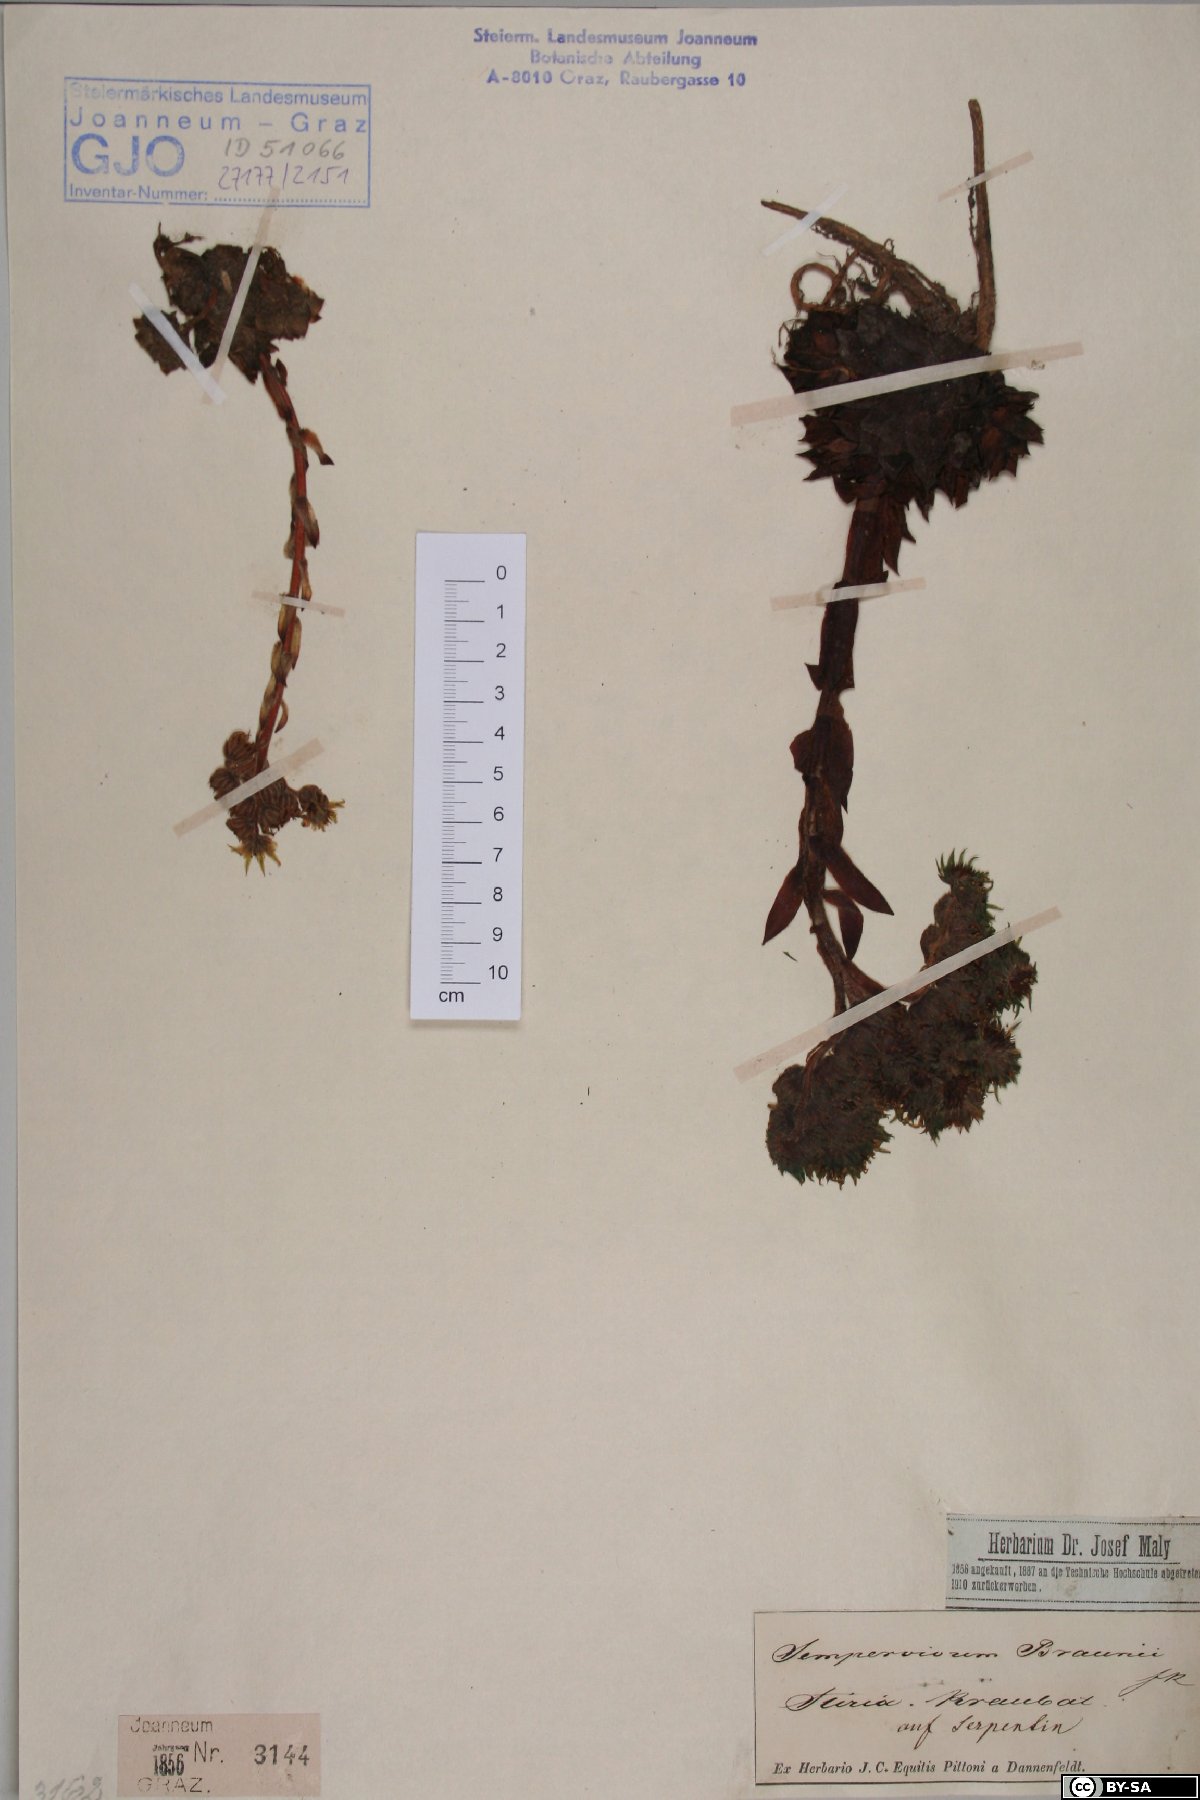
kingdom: Plantae
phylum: Tracheophyta
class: Magnoliopsida
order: Saxifragales
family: Crassulaceae
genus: Sempervivum
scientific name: Sempervivum pittonii
